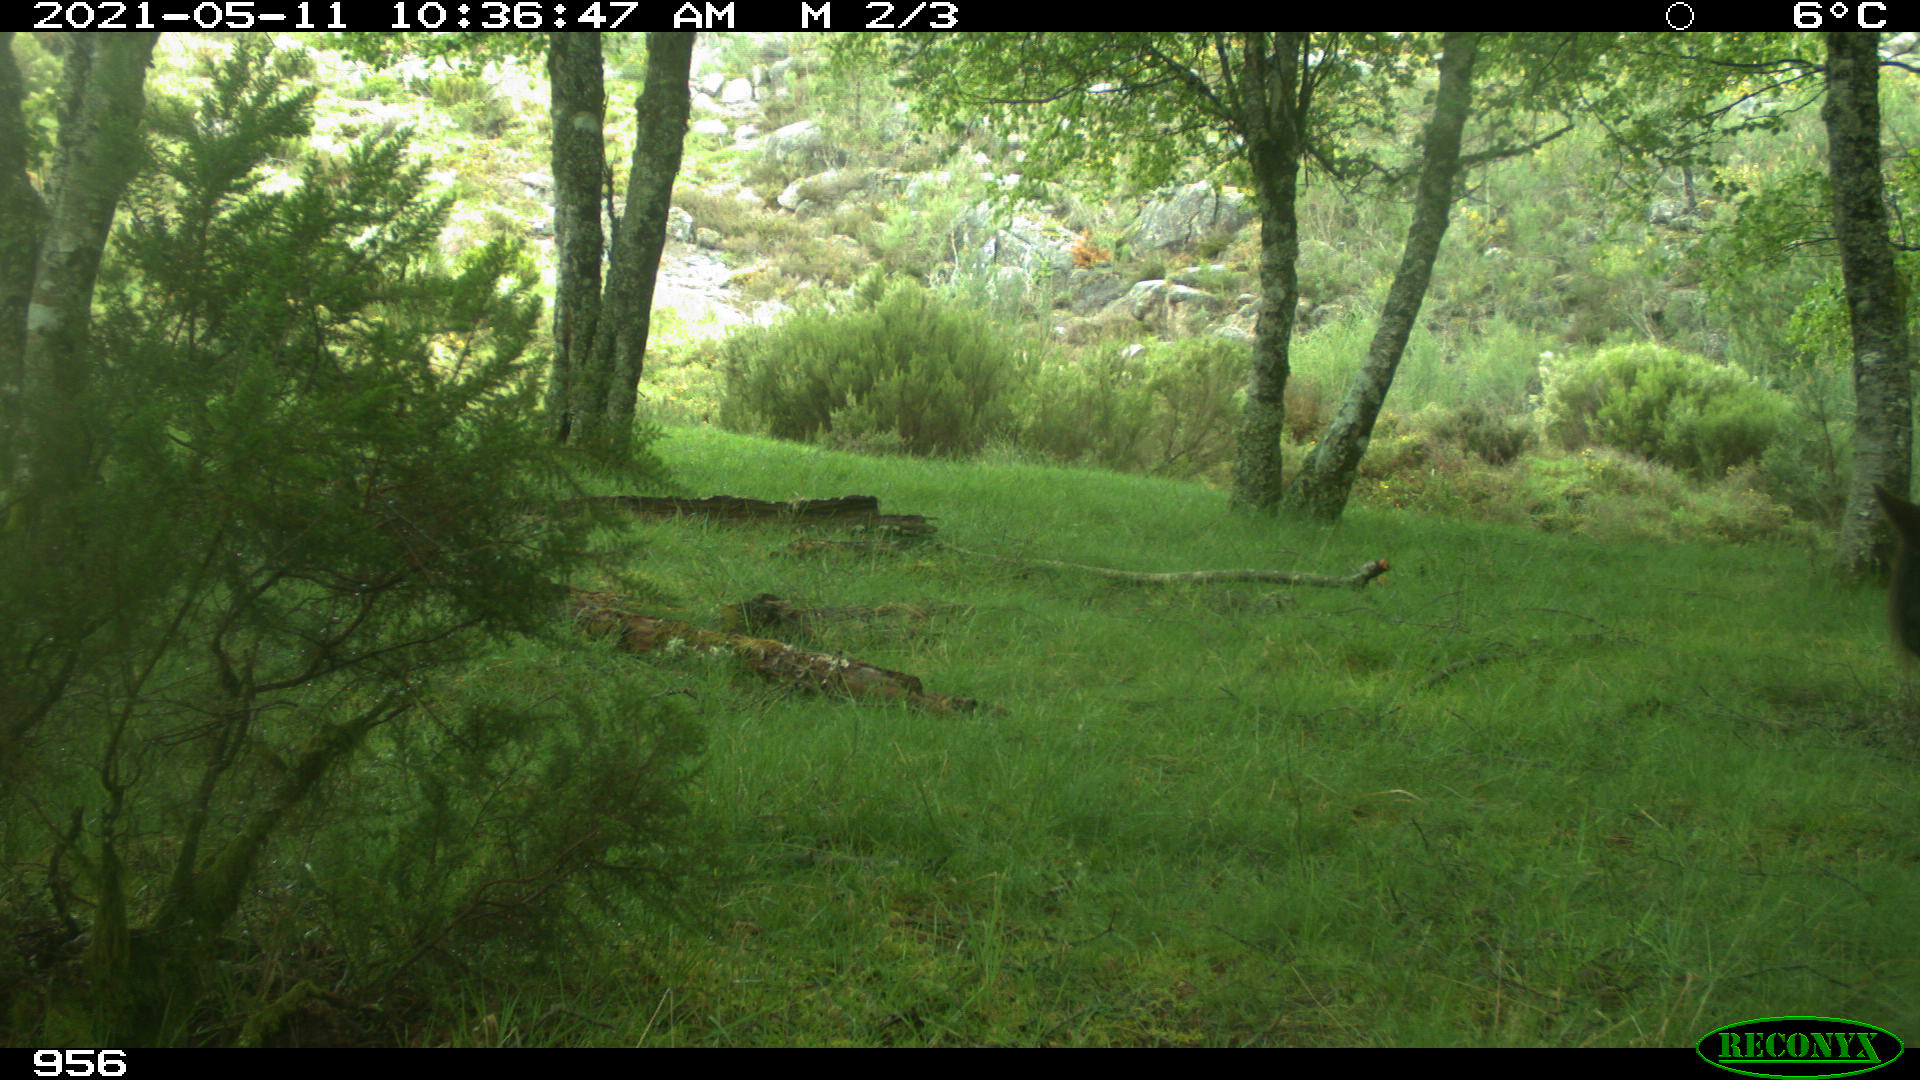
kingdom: Animalia
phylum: Chordata
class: Mammalia
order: Perissodactyla
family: Equidae
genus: Equus
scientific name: Equus caballus
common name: Horse
